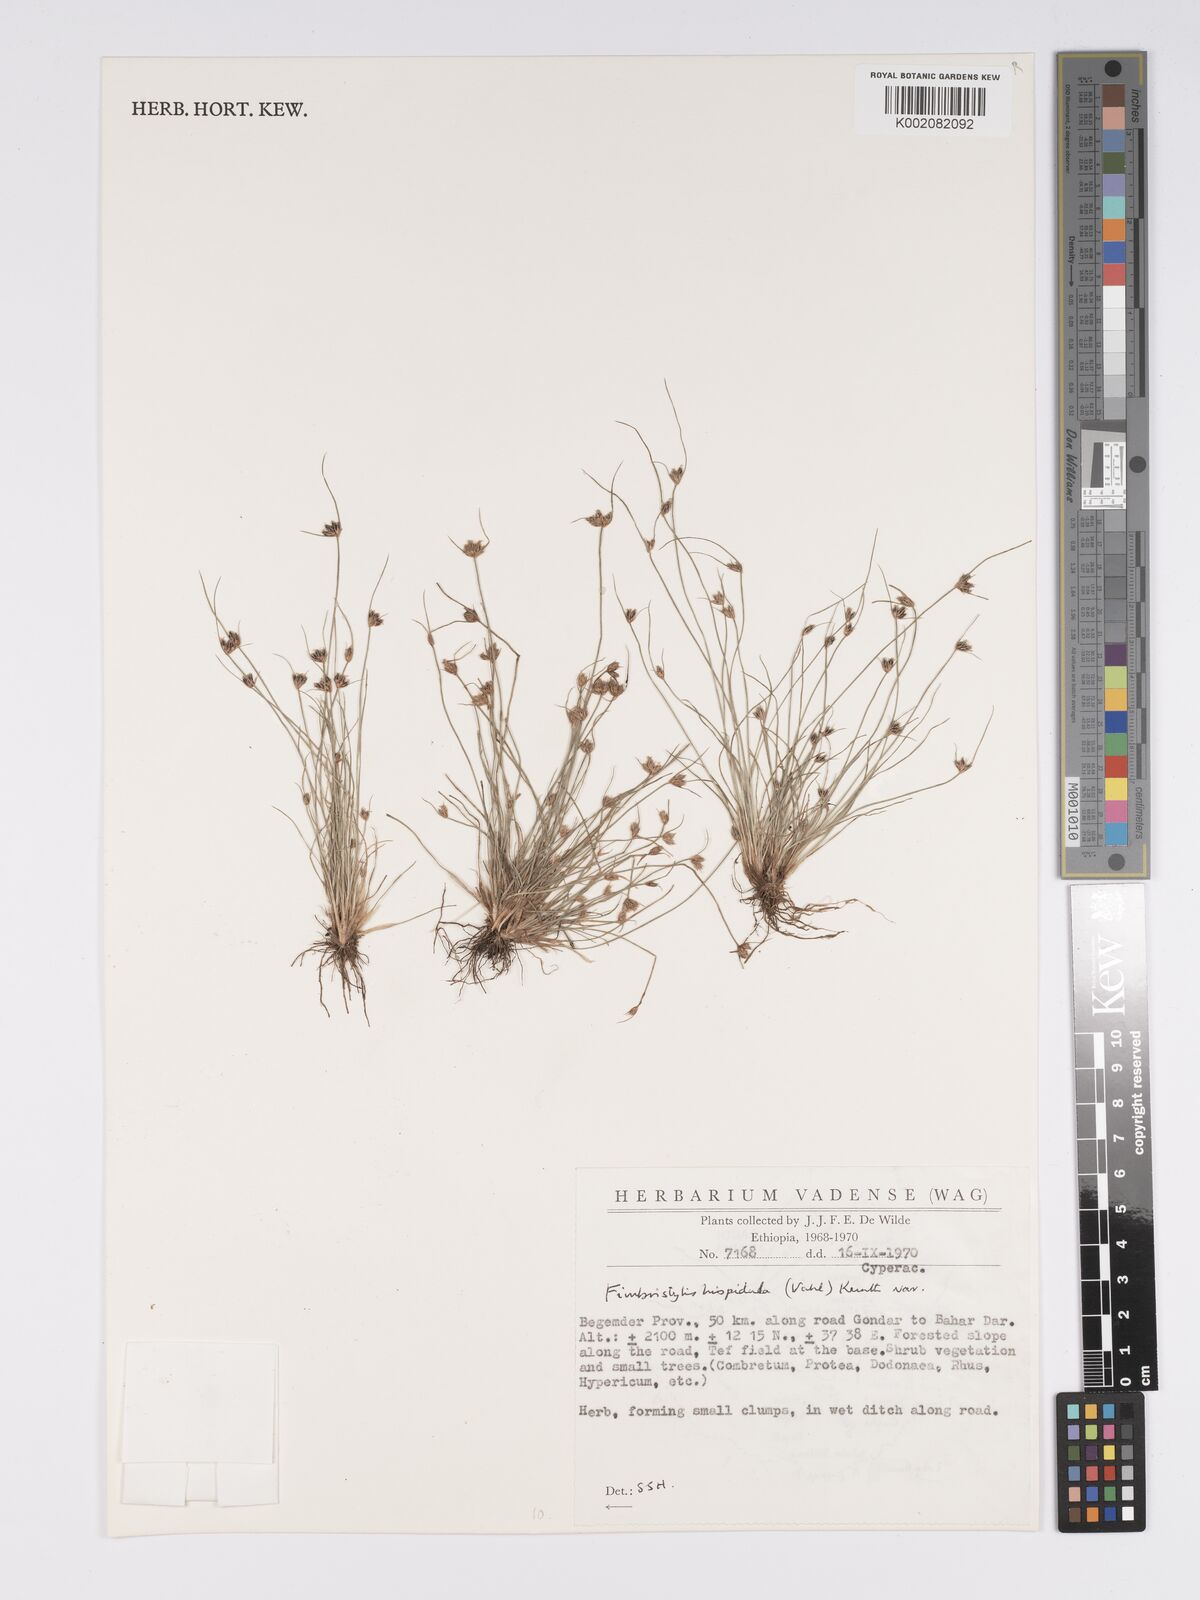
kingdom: Plantae
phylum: Tracheophyta
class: Liliopsida
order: Poales
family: Cyperaceae
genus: Bulbostylis
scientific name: Bulbostylis hispidula
